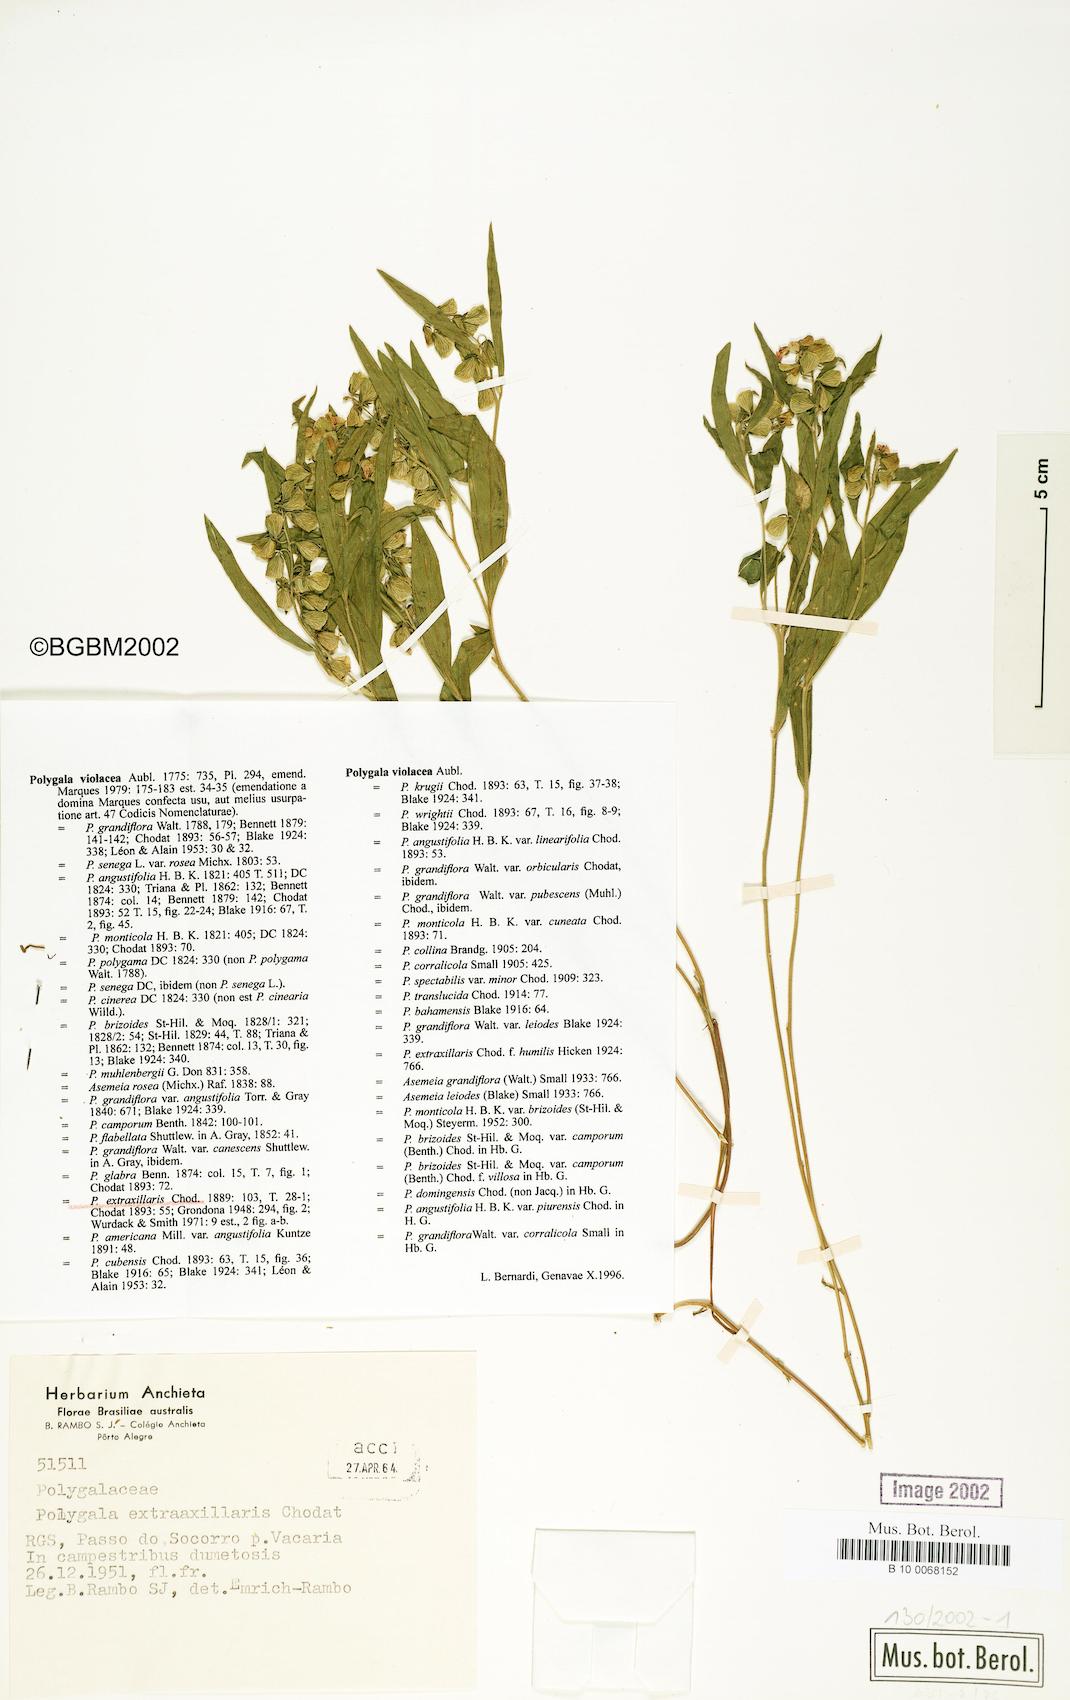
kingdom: Plantae
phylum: Tracheophyta
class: Magnoliopsida
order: Fabales
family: Polygalaceae
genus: Asemeia
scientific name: Asemeia extraaxillaris
